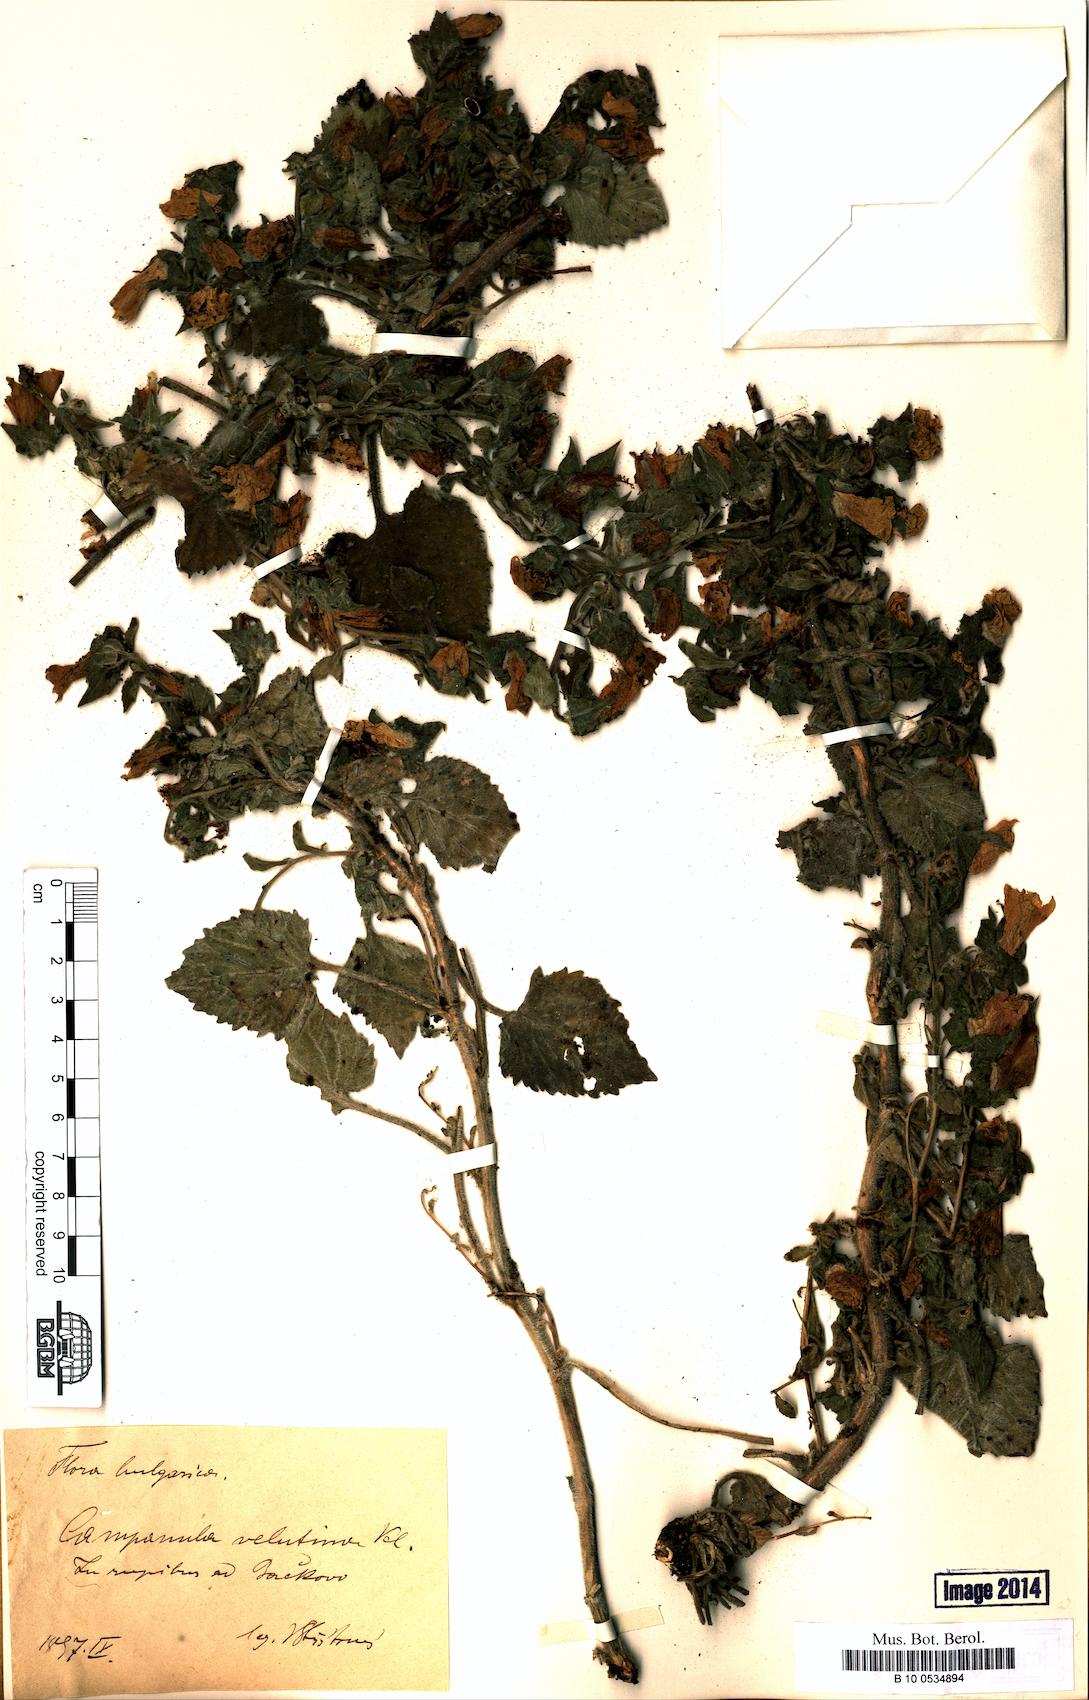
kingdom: Plantae
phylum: Tracheophyta
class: Magnoliopsida
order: Asterales
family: Campanulaceae
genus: Campanula
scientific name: Campanula lanata
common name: Woolly bellflower
